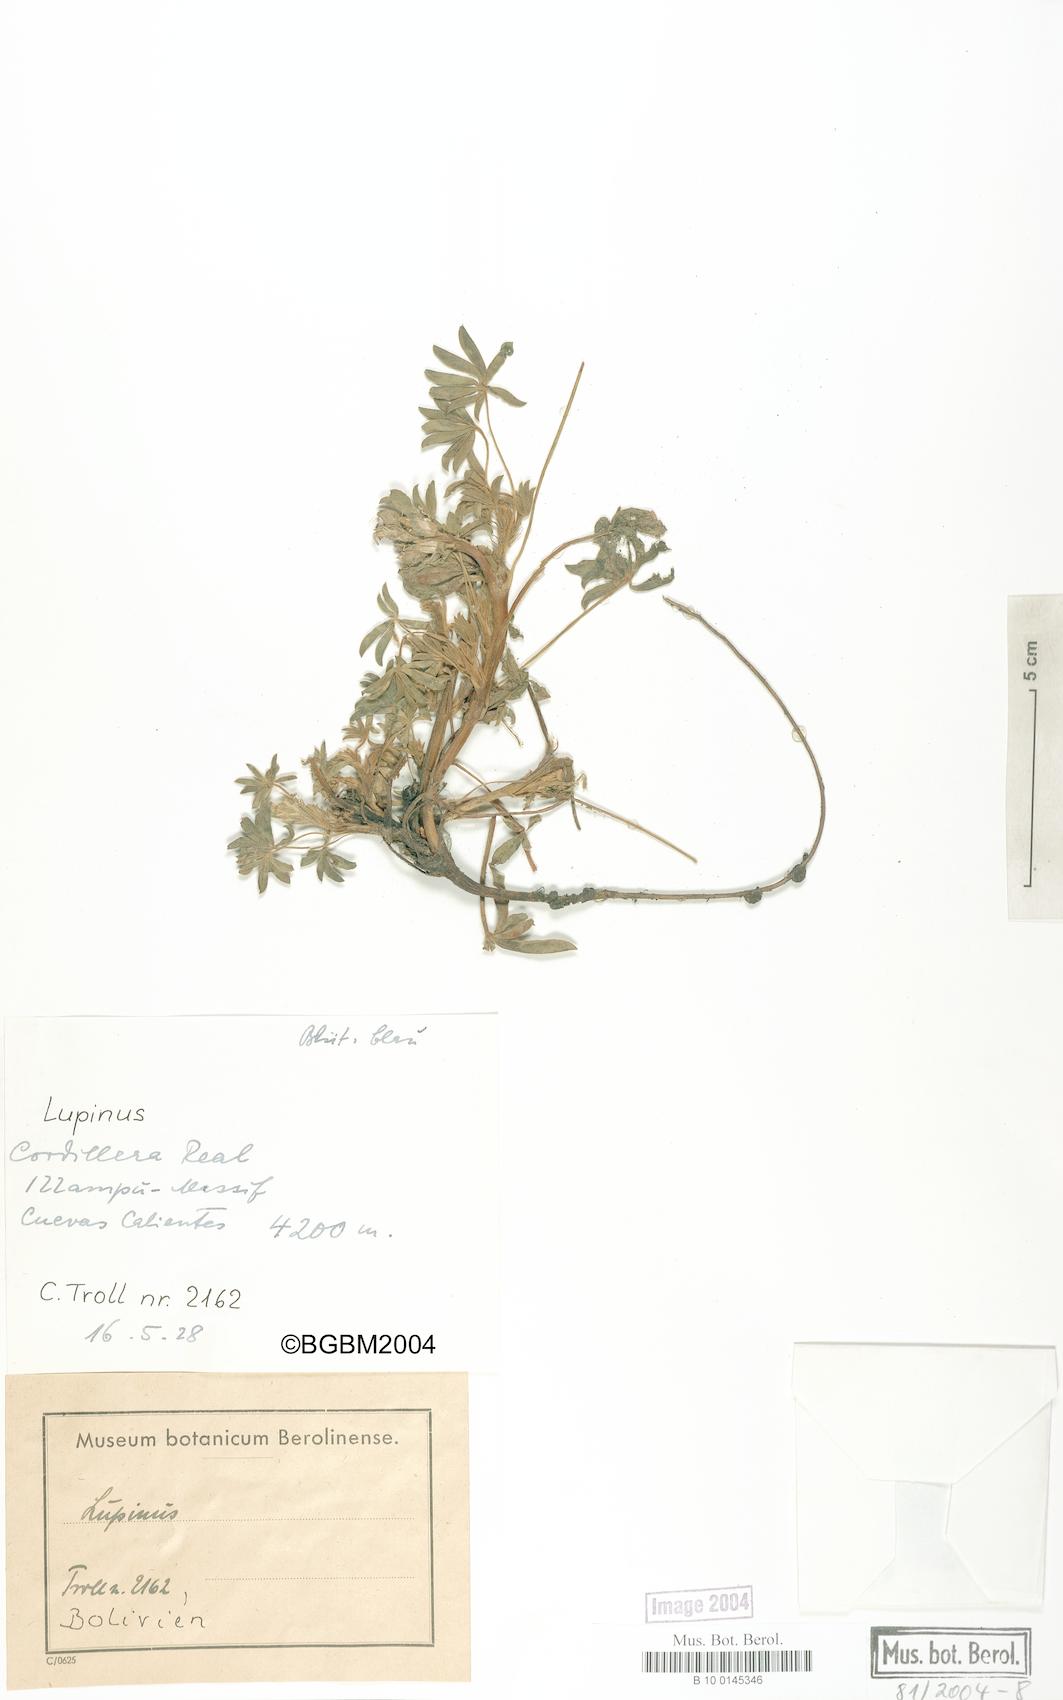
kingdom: Plantae
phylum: Tracheophyta
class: Magnoliopsida
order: Fabales
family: Fabaceae
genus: Lupinus
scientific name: Lupinus
